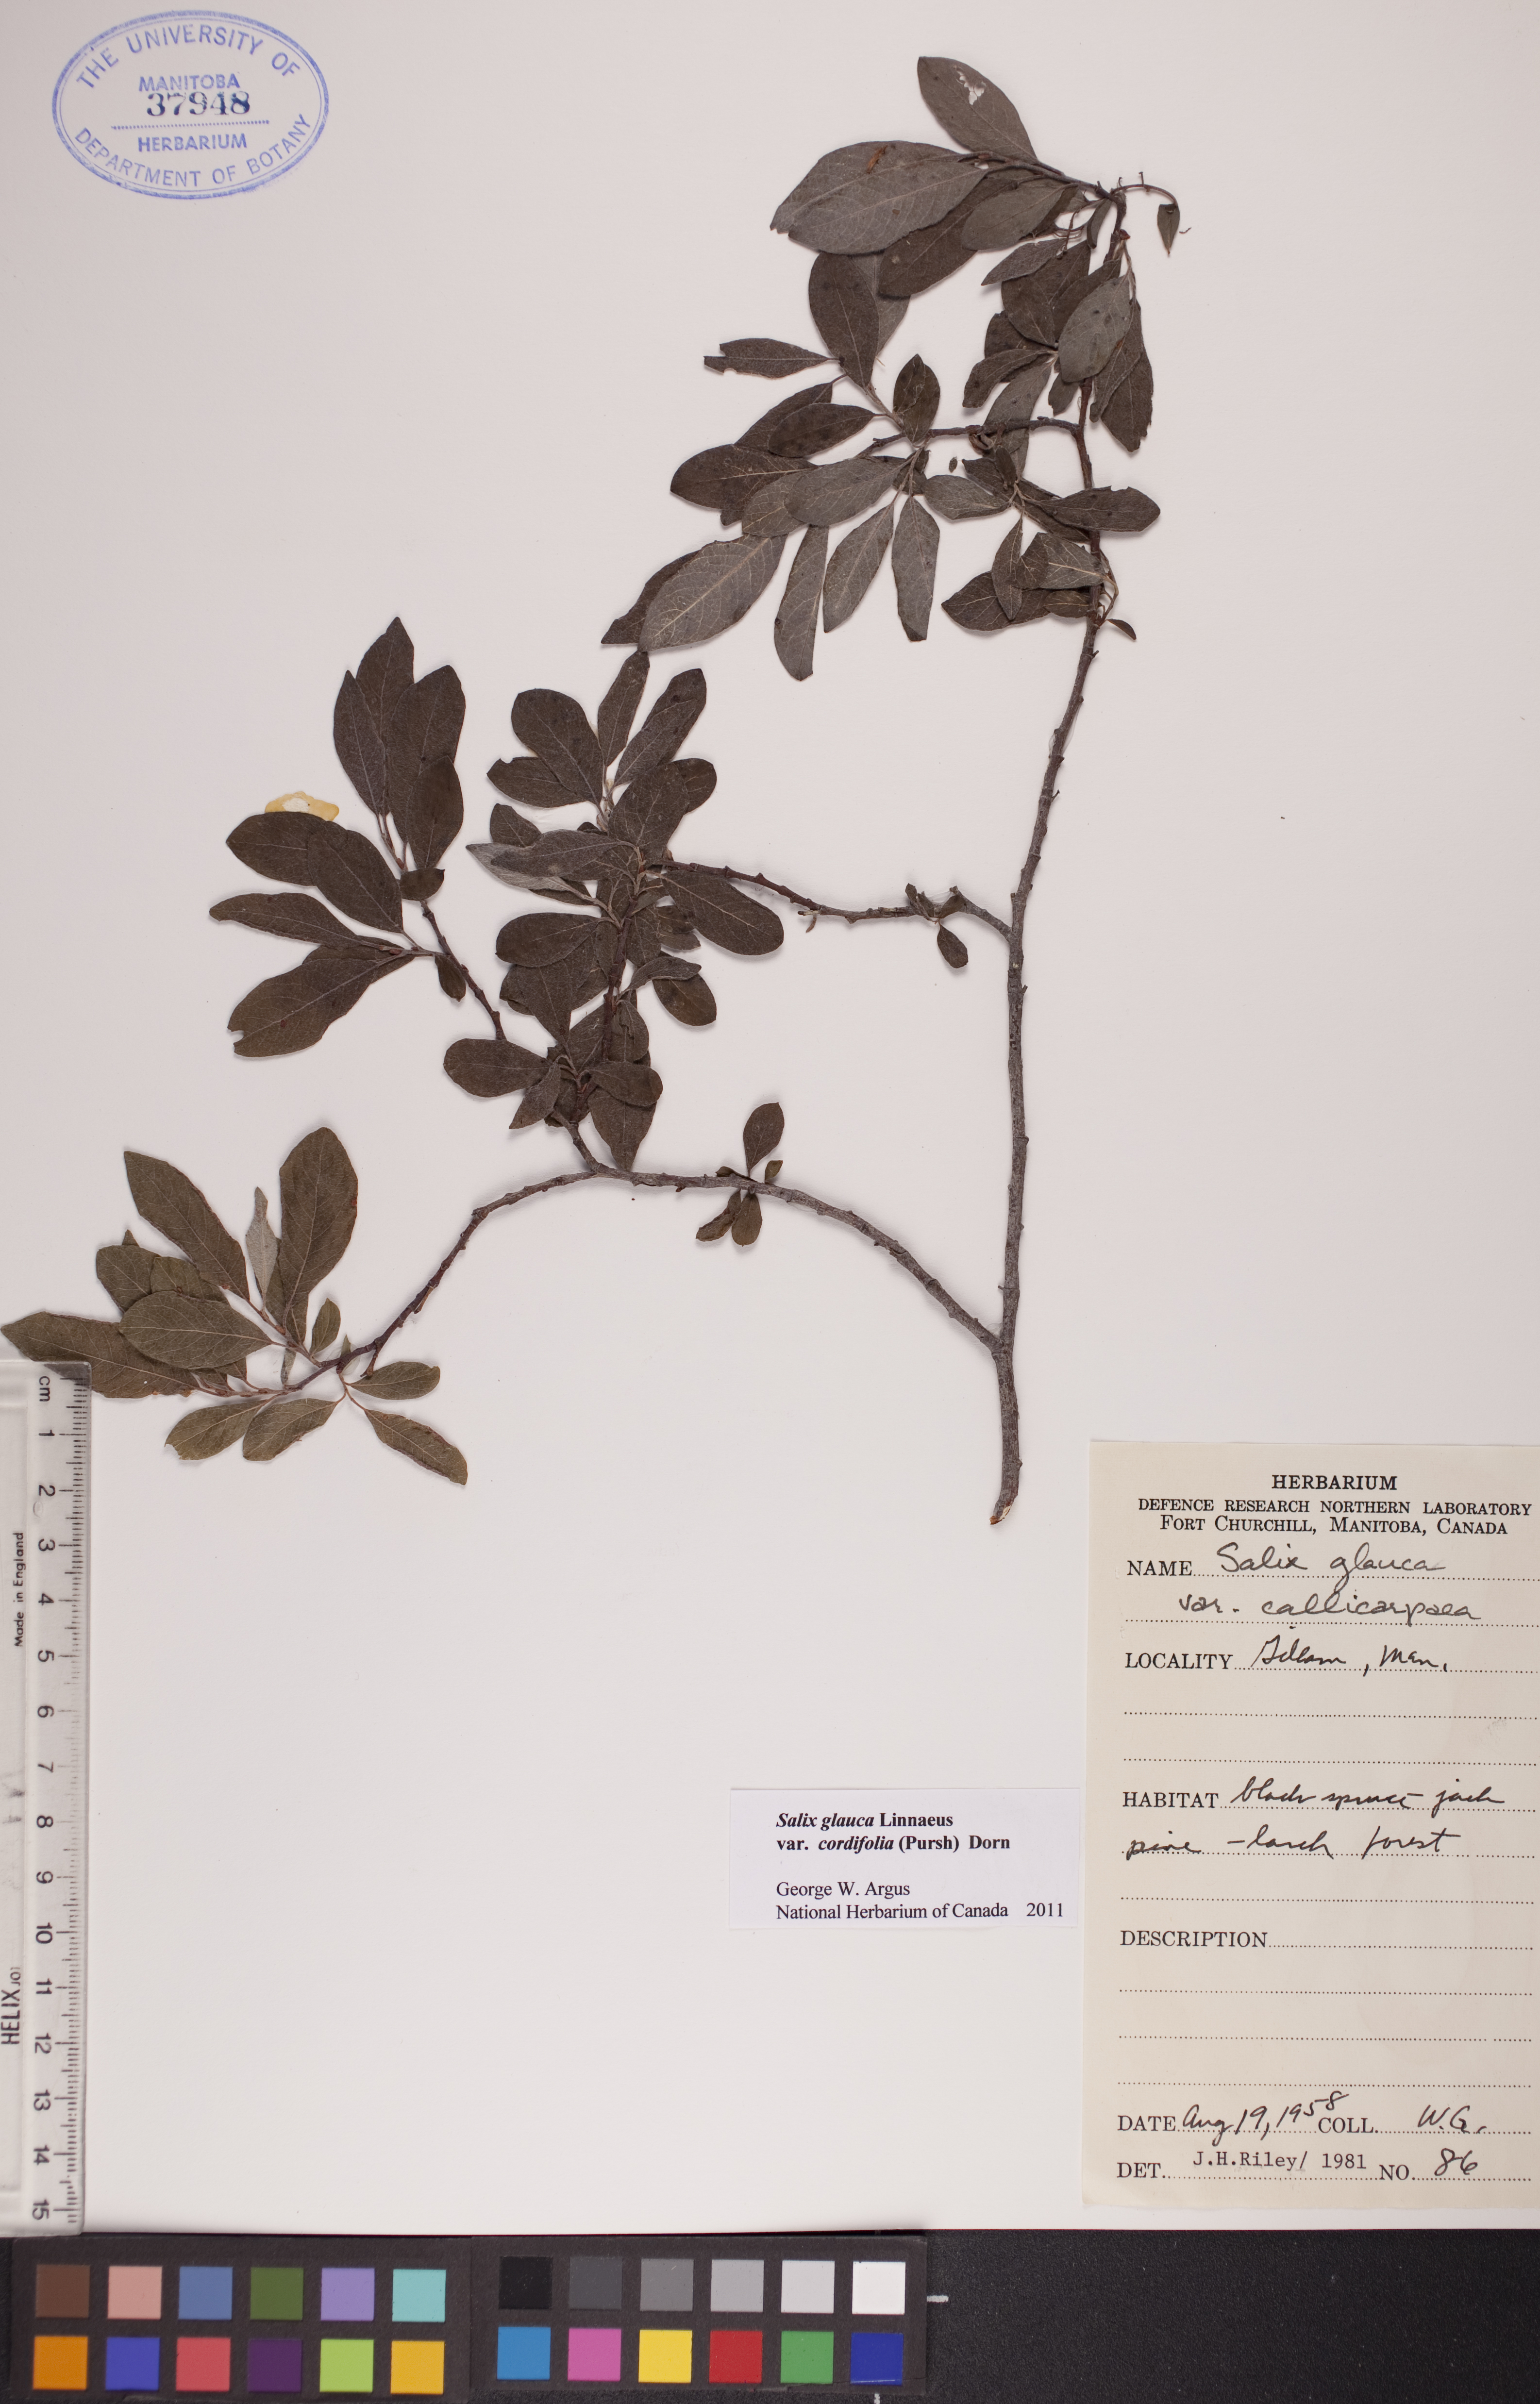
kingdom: Plantae
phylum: Tracheophyta
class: Magnoliopsida
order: Malpighiales
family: Salicaceae
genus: Salix
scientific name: Salix glauca
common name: Glaucous willow
